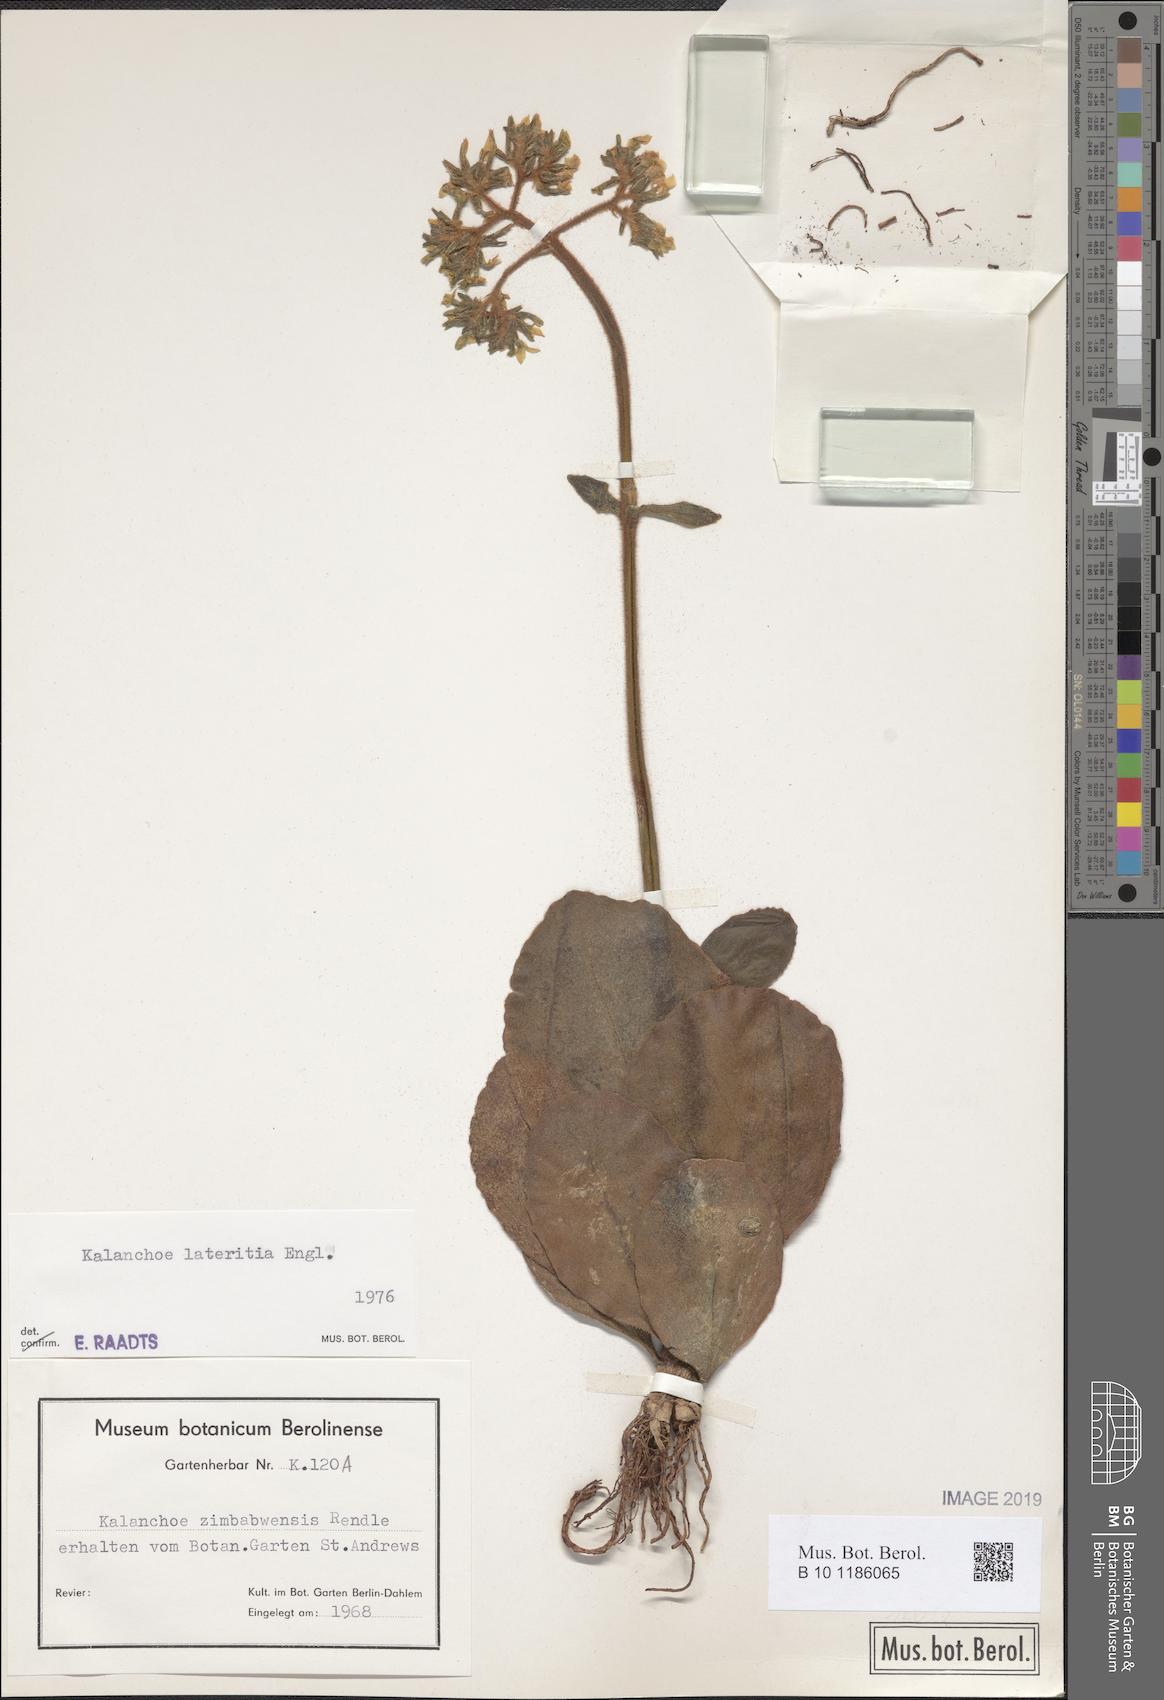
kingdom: Plantae
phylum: Tracheophyta
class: Magnoliopsida
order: Saxifragales
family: Crassulaceae
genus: Kalanchoe
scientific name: Kalanchoe lateritia
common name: Kalanchoe
